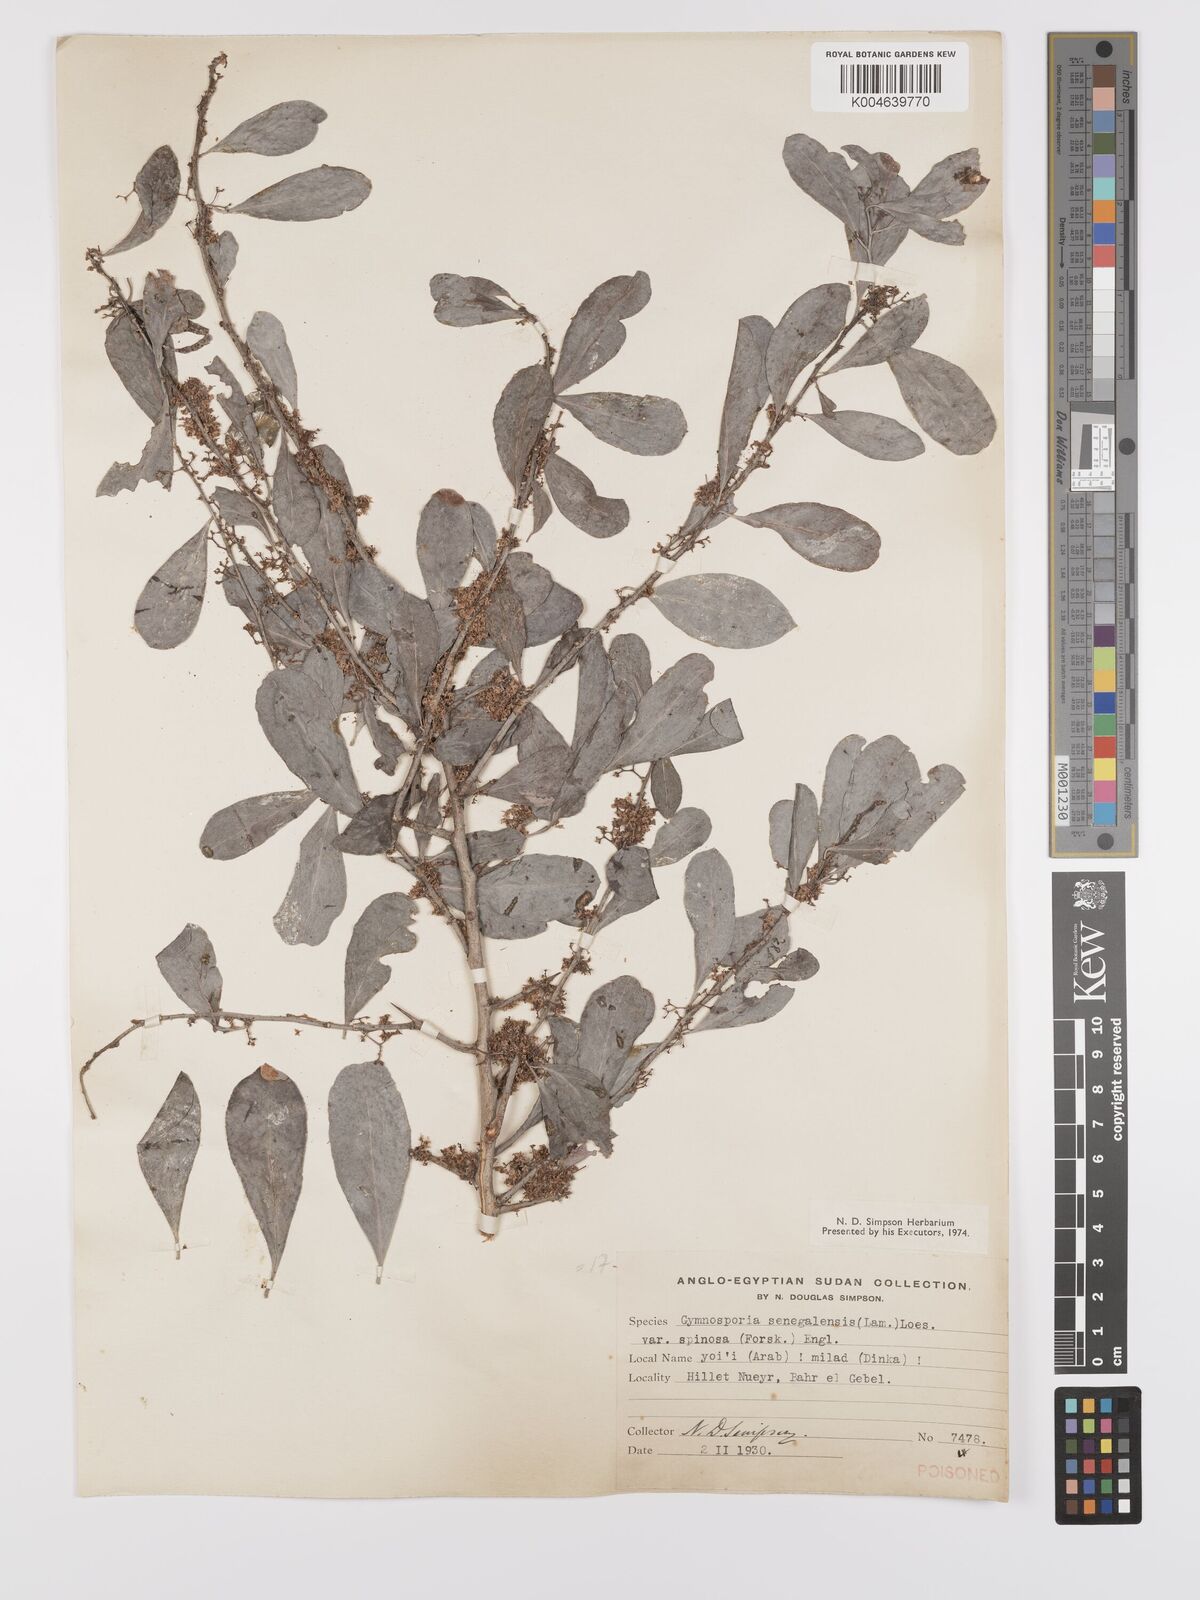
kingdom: Plantae
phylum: Tracheophyta
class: Magnoliopsida
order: Celastrales
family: Celastraceae
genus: Gymnosporia
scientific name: Gymnosporia senegalensis
